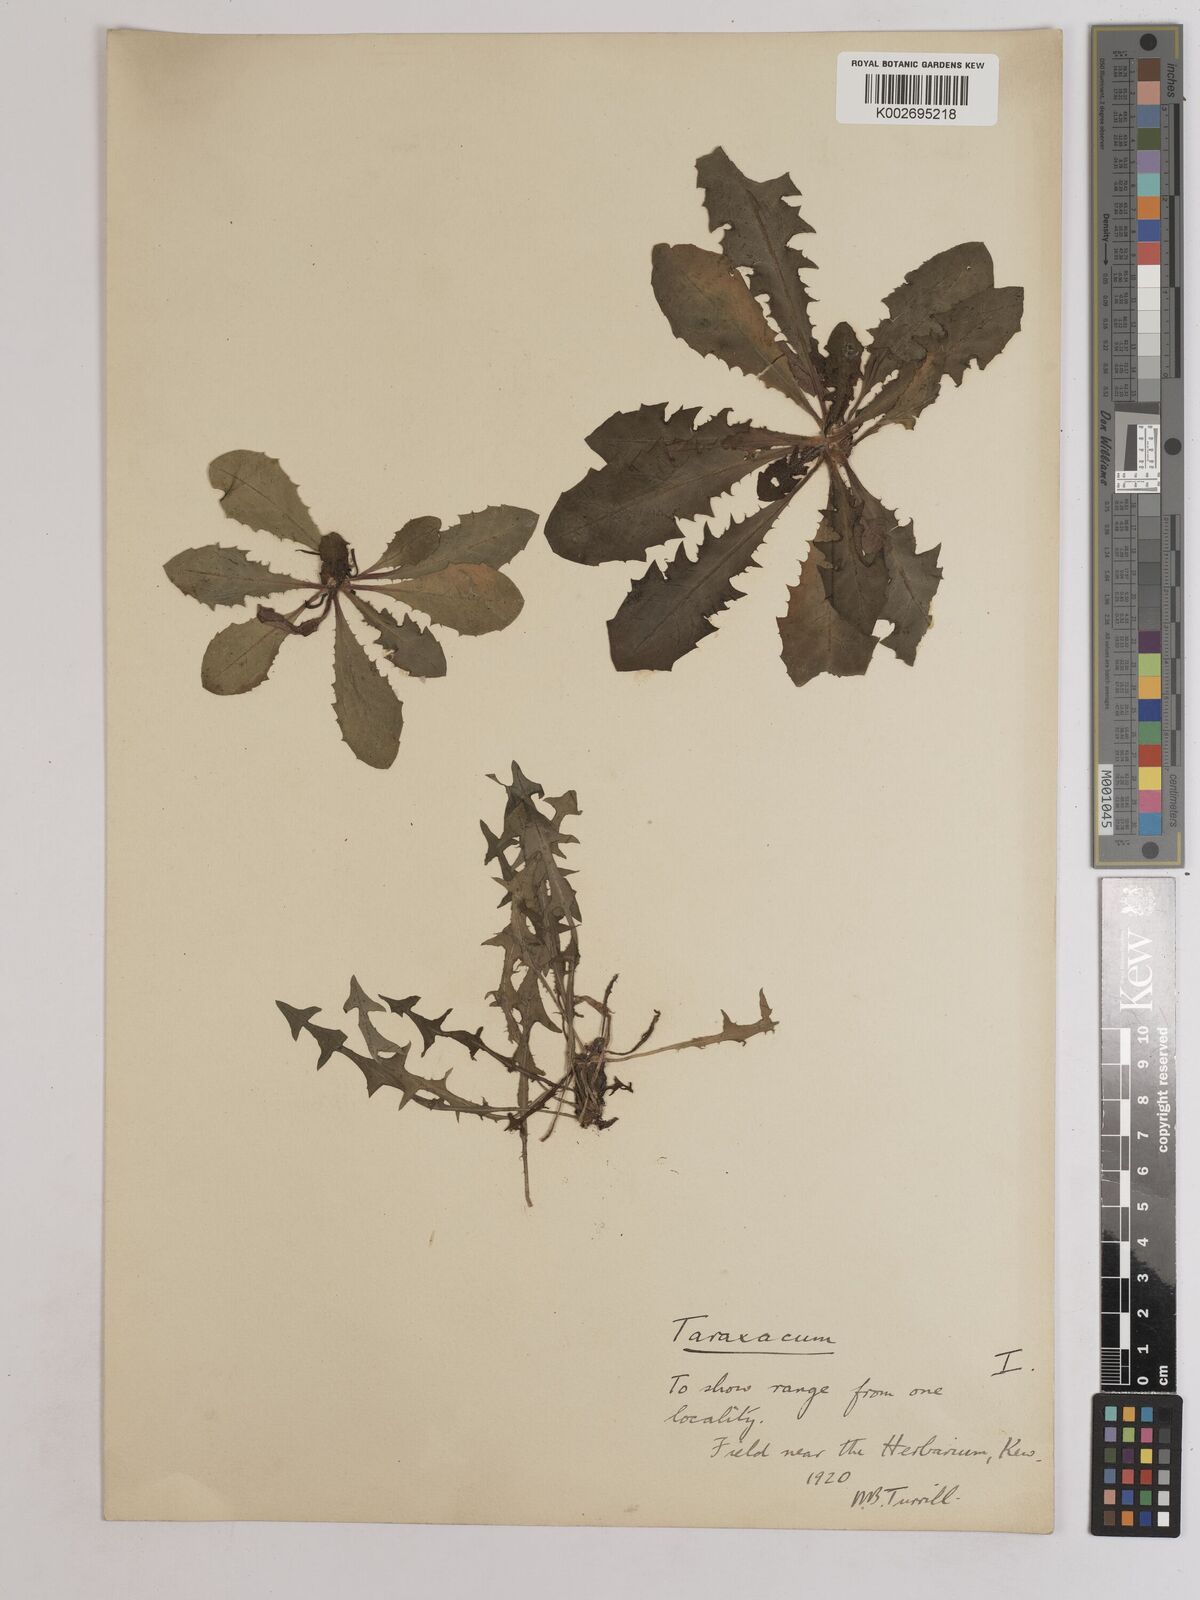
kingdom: Plantae
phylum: Tracheophyta
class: Magnoliopsida
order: Asterales
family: Asteraceae
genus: Taraxacum
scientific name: Taraxacum officinale
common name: Common dandelion
